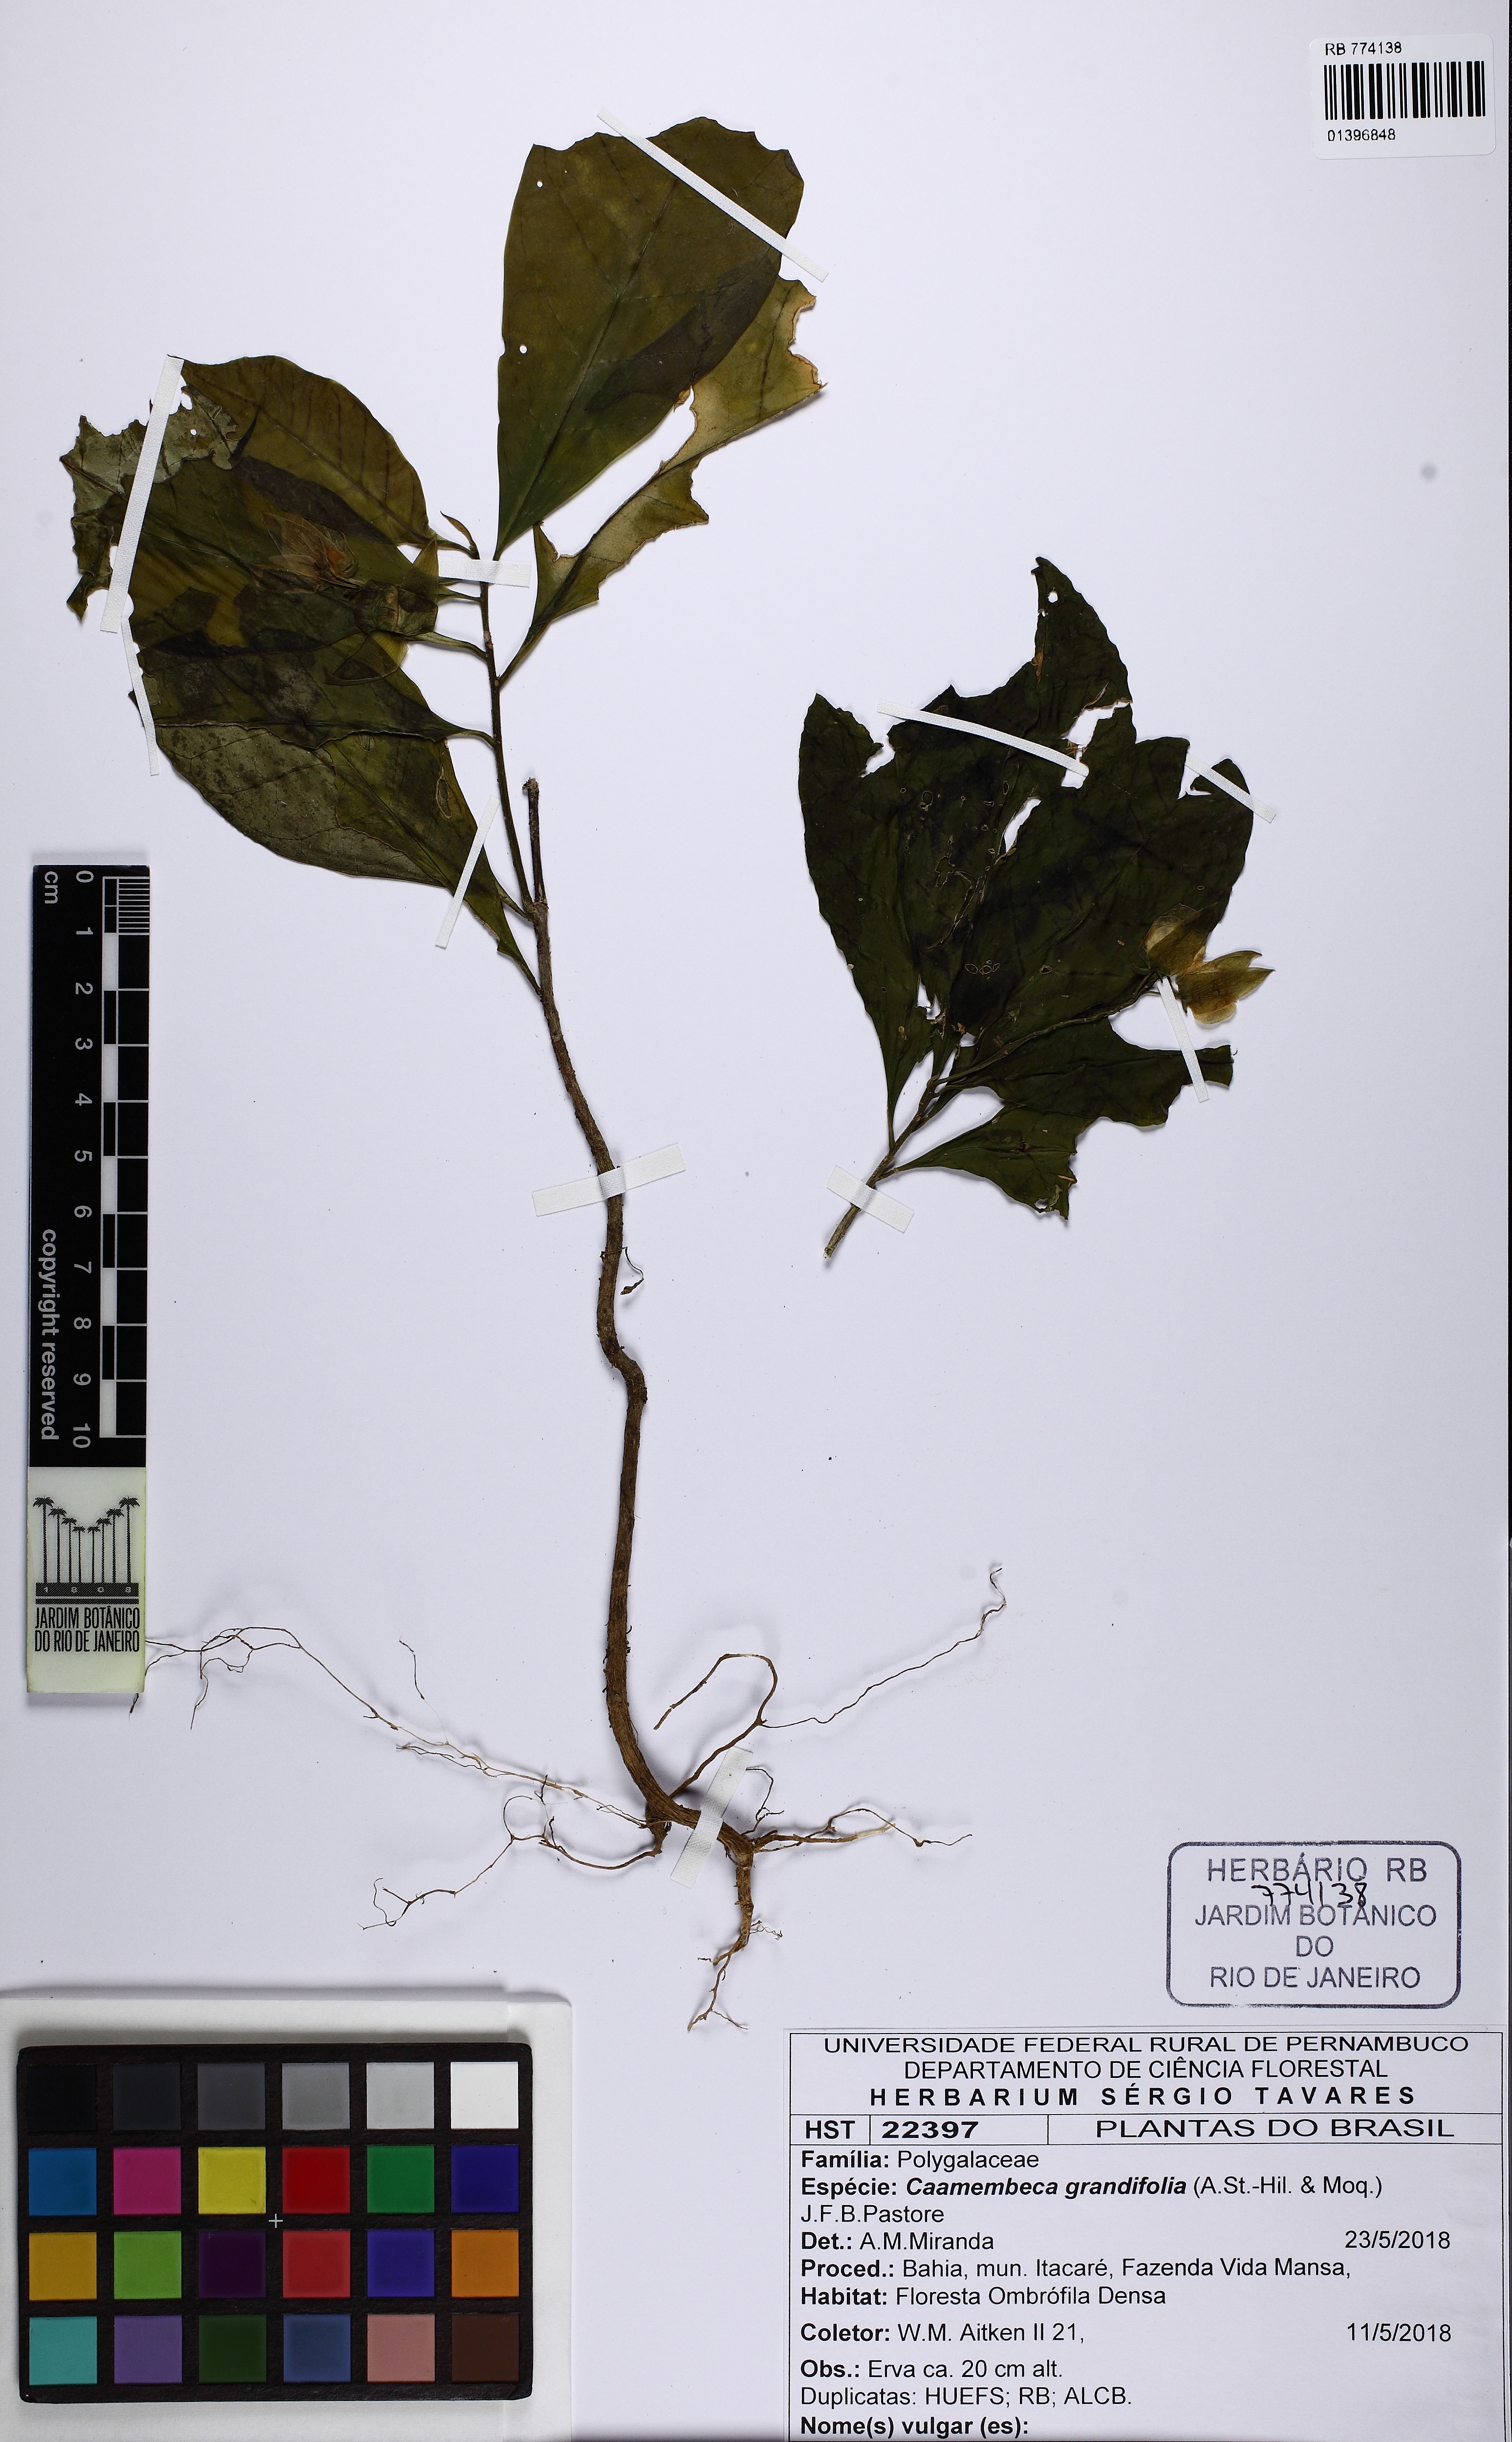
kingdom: Plantae
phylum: Tracheophyta
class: Magnoliopsida
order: Fabales
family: Polygalaceae
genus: Caamembeca
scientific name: Caamembeca grandifolia
